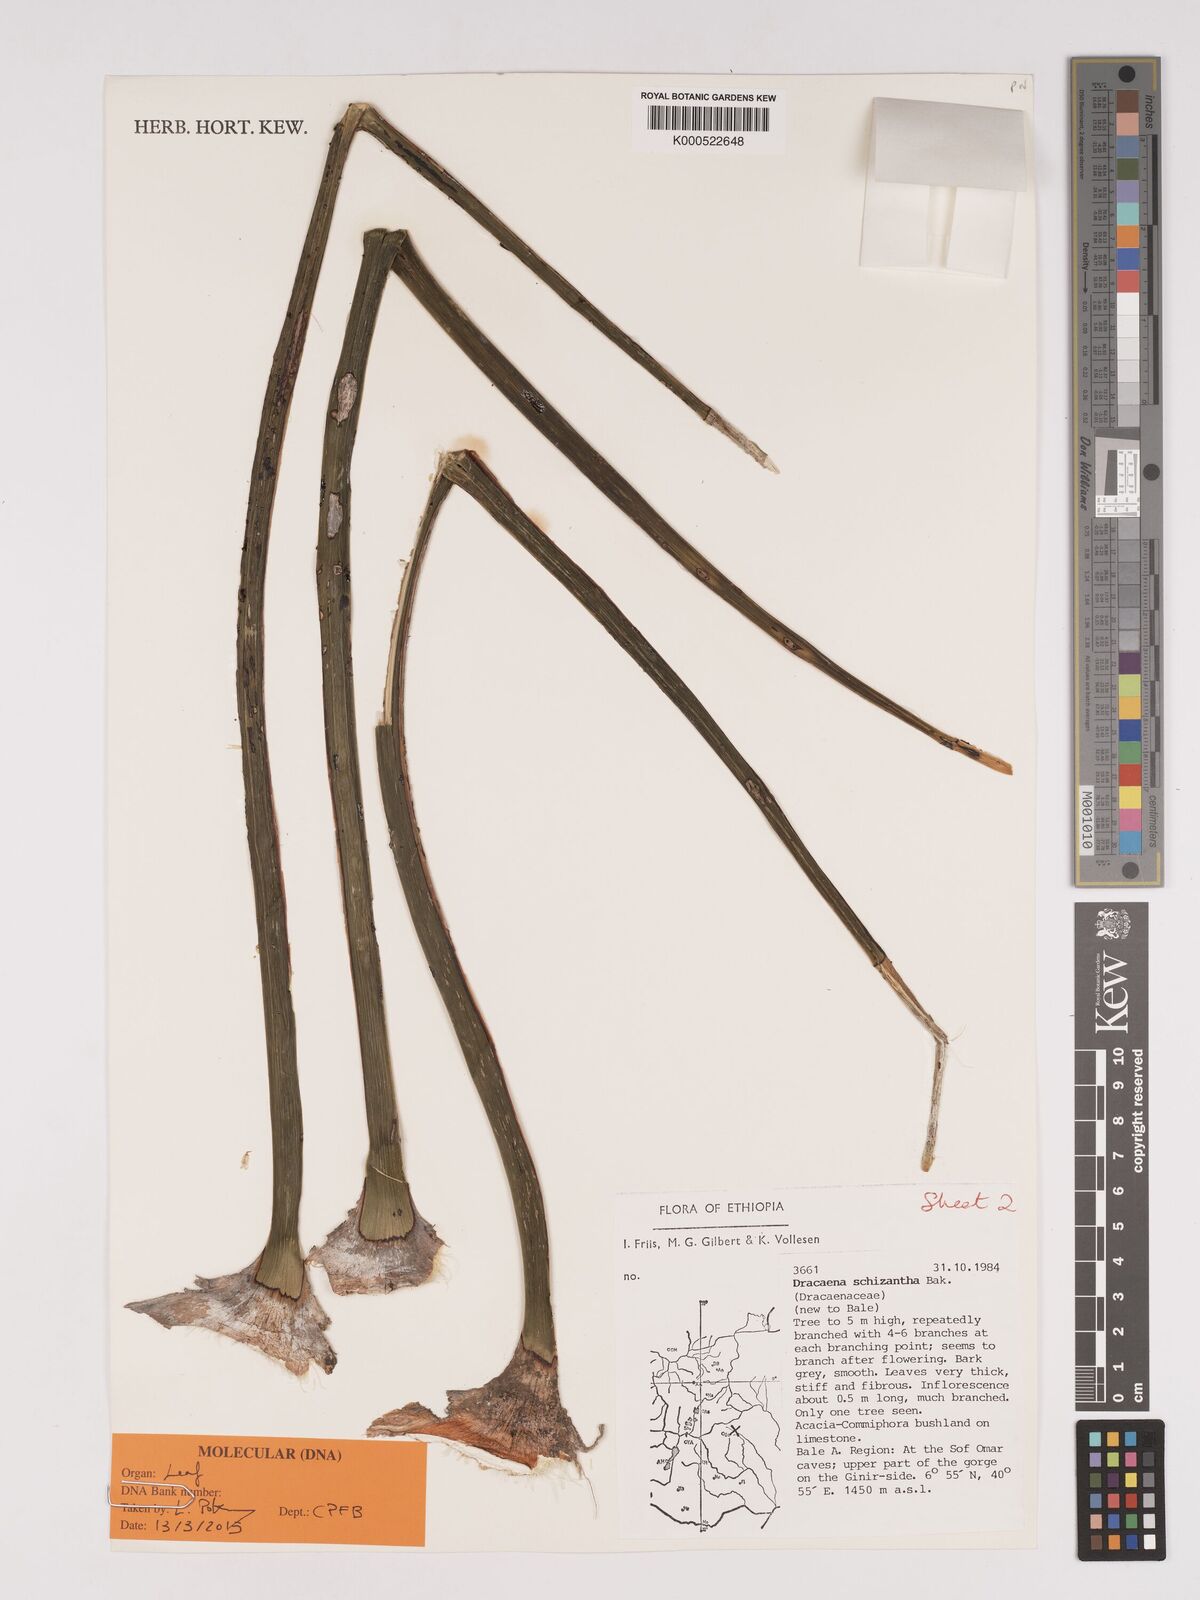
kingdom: Plantae
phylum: Tracheophyta
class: Liliopsida
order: Asparagales
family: Asparagaceae
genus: Dracaena
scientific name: Dracaena ombet
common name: Gabal elba dragon tree
